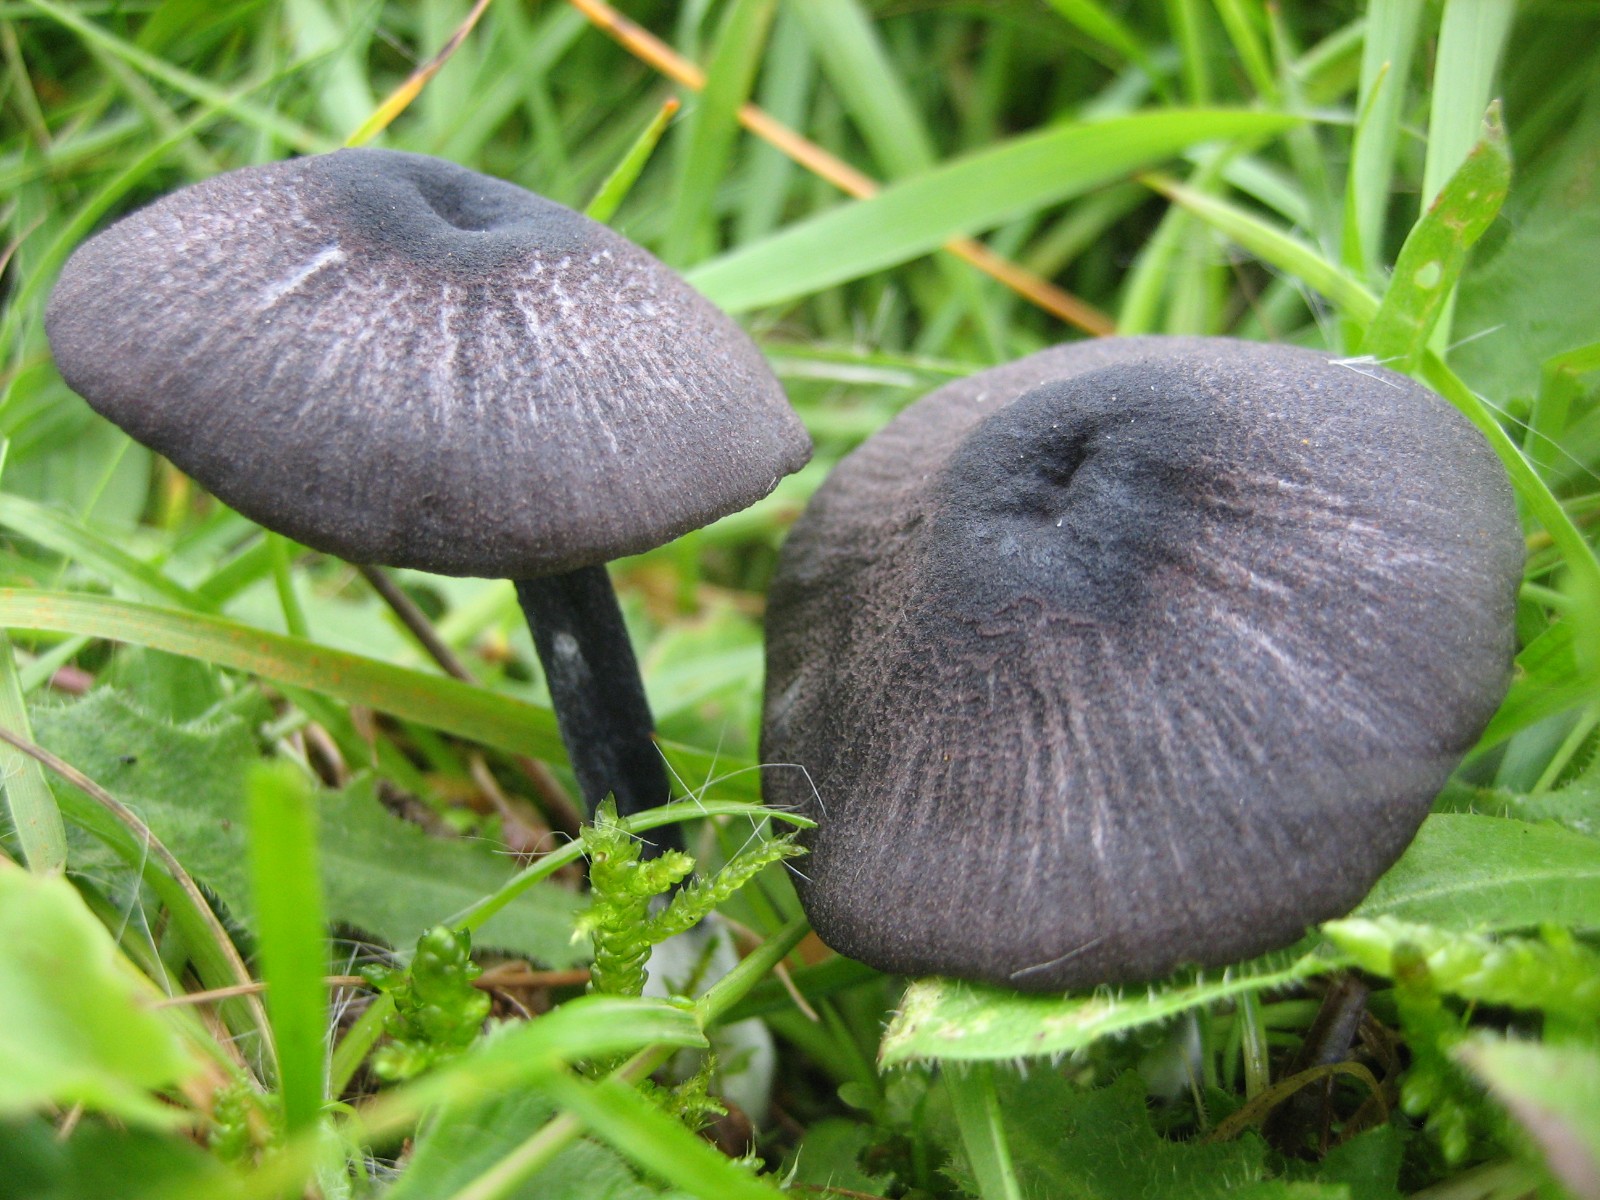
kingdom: Fungi
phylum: Basidiomycota
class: Agaricomycetes
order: Agaricales
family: Entolomataceae
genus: Entoloma
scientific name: Entoloma chalybeum
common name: blåbladet rødblad
